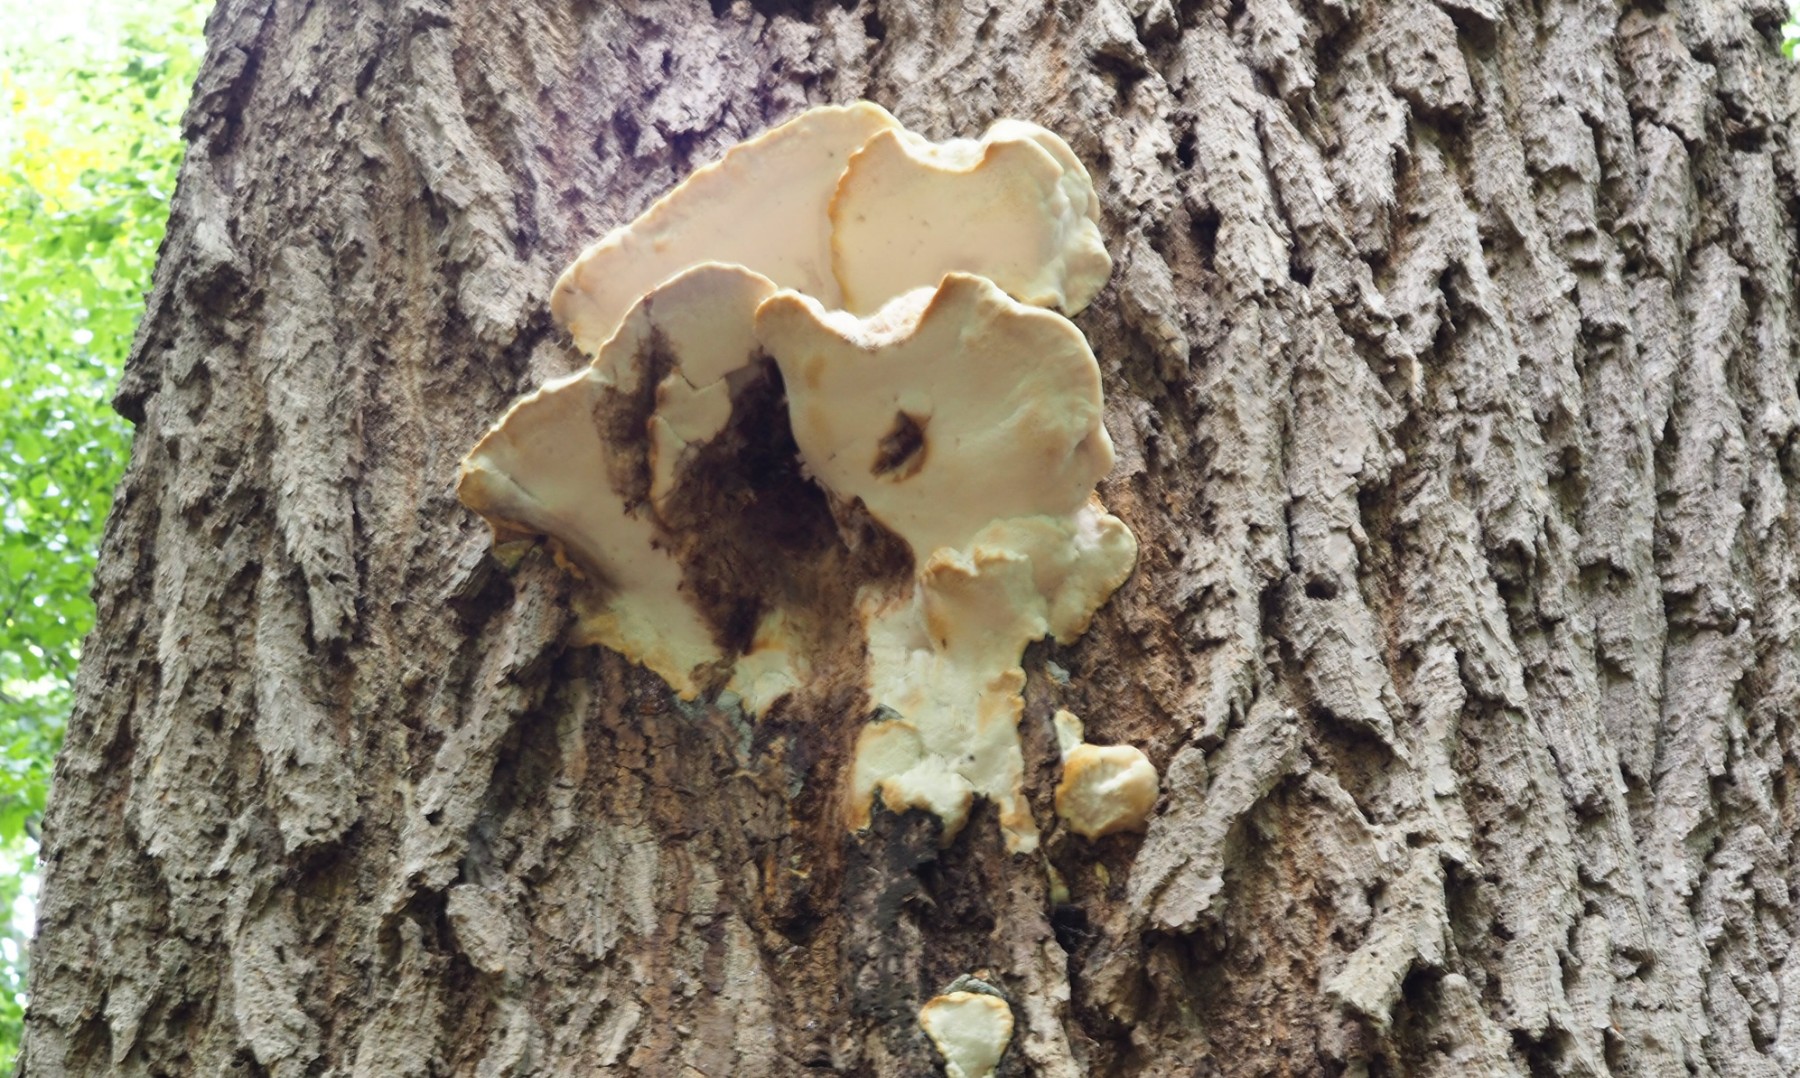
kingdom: Fungi
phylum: Basidiomycota
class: Agaricomycetes
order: Polyporales
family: Meruliaceae
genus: Pappia
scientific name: Pappia fissilis
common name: sej fedtporesvamp
